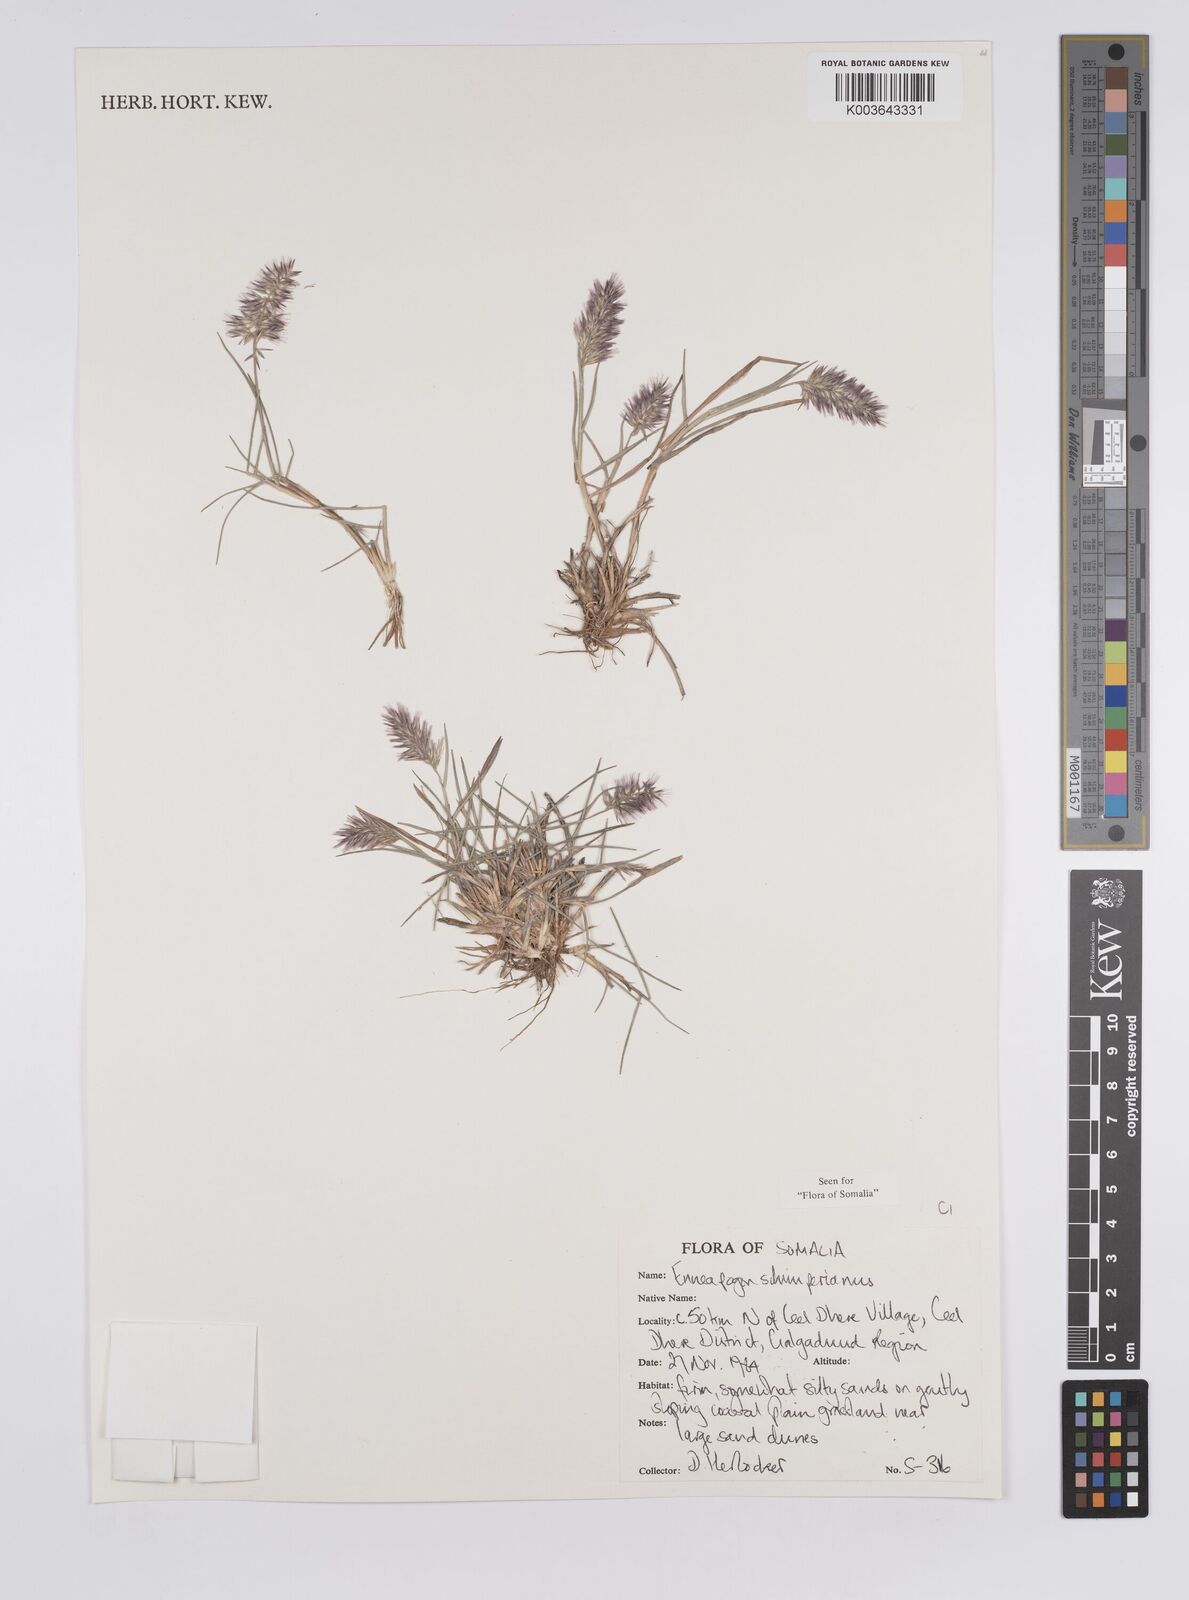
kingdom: Plantae
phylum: Tracheophyta
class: Liliopsida
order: Poales
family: Poaceae
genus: Enneapogon
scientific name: Enneapogon persicus
